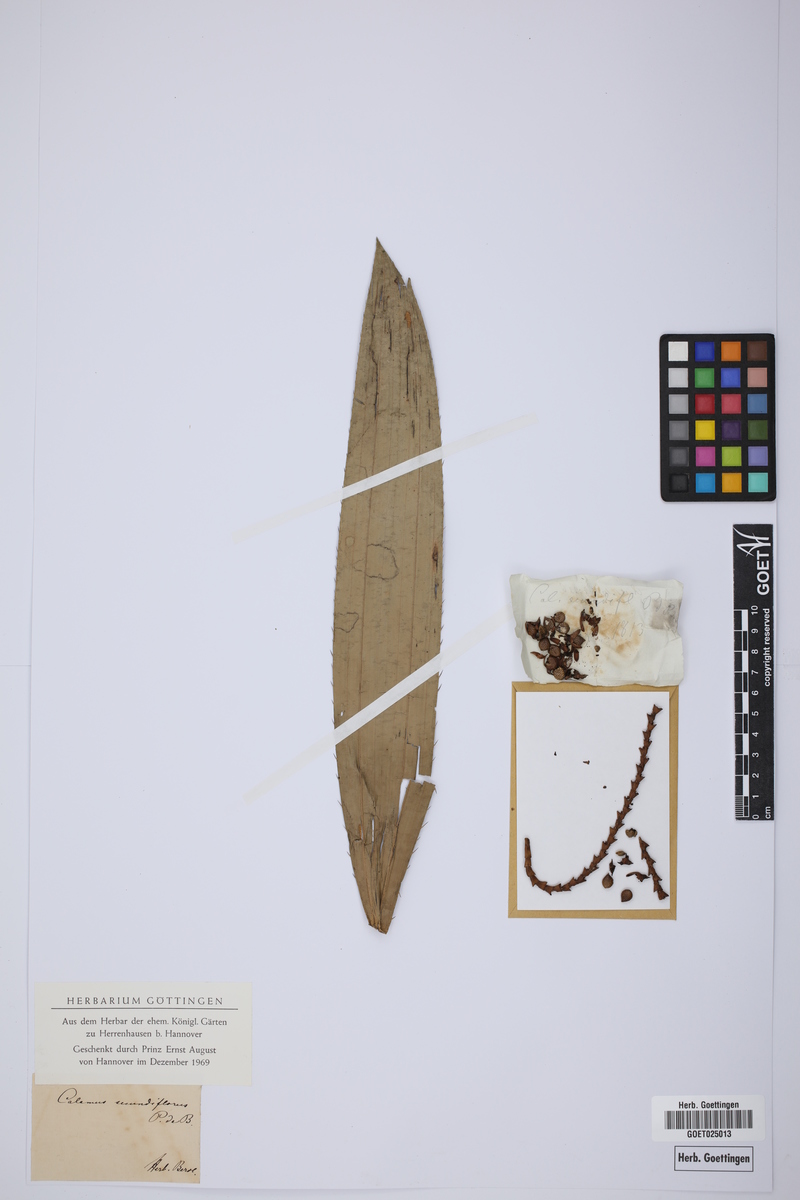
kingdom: Plantae
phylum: Tracheophyta
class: Liliopsida
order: Arecales
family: Arecaceae
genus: Laccosperma
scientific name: Laccosperma secundiflorum
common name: Rattan
